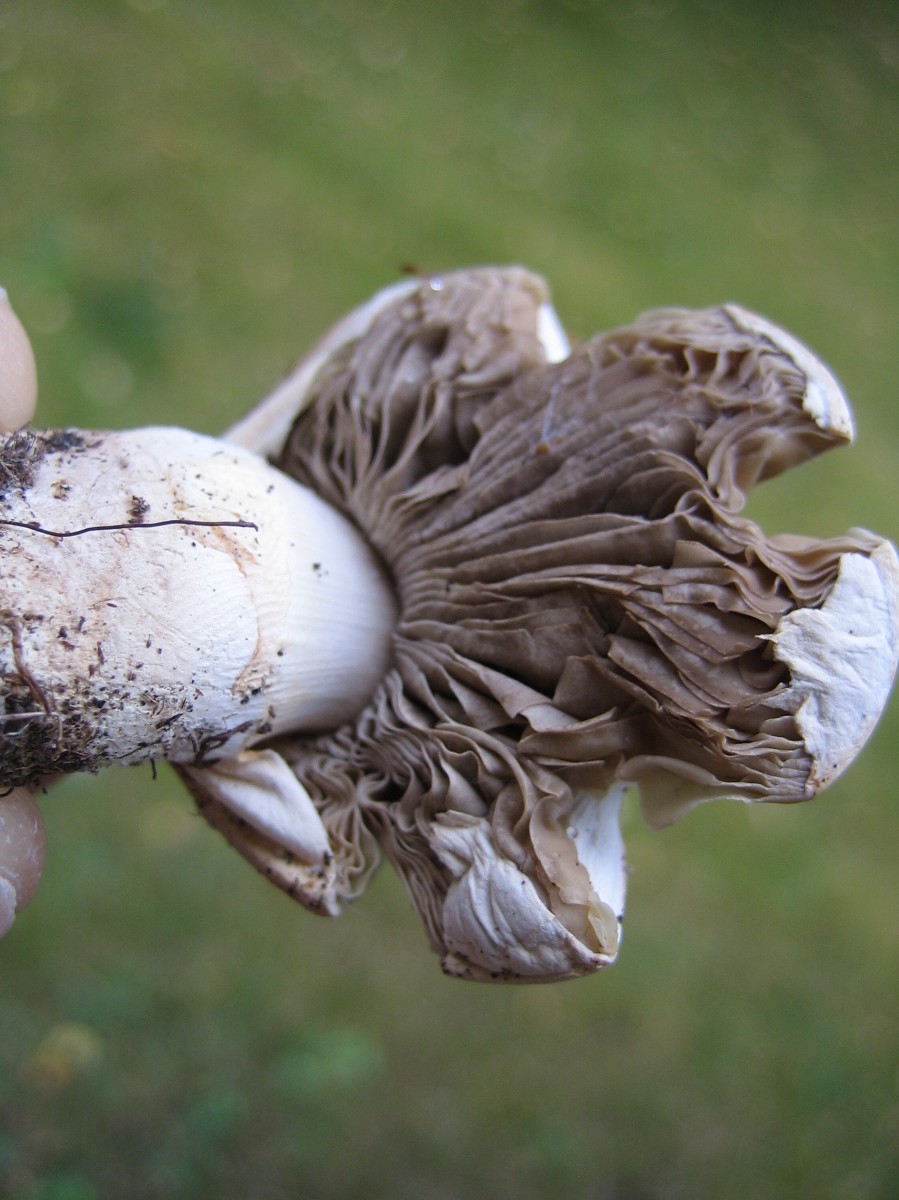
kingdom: Fungi
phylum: Basidiomycota
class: Agaricomycetes
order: Agaricales
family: Agaricaceae
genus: Agaricus
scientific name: Agaricus
